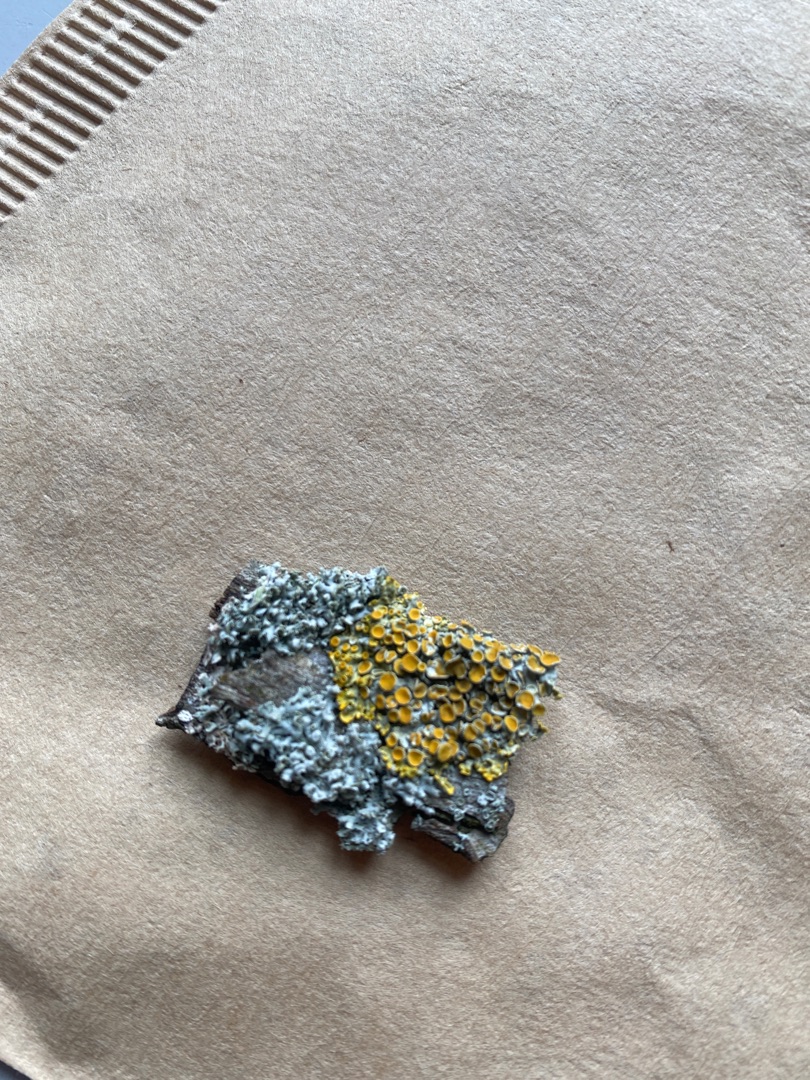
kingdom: Fungi
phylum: Ascomycota
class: Lecanoromycetes
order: Teloschistales
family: Teloschistaceae
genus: Xanthoria
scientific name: Xanthoria parietina
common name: Almindelig væggelav
